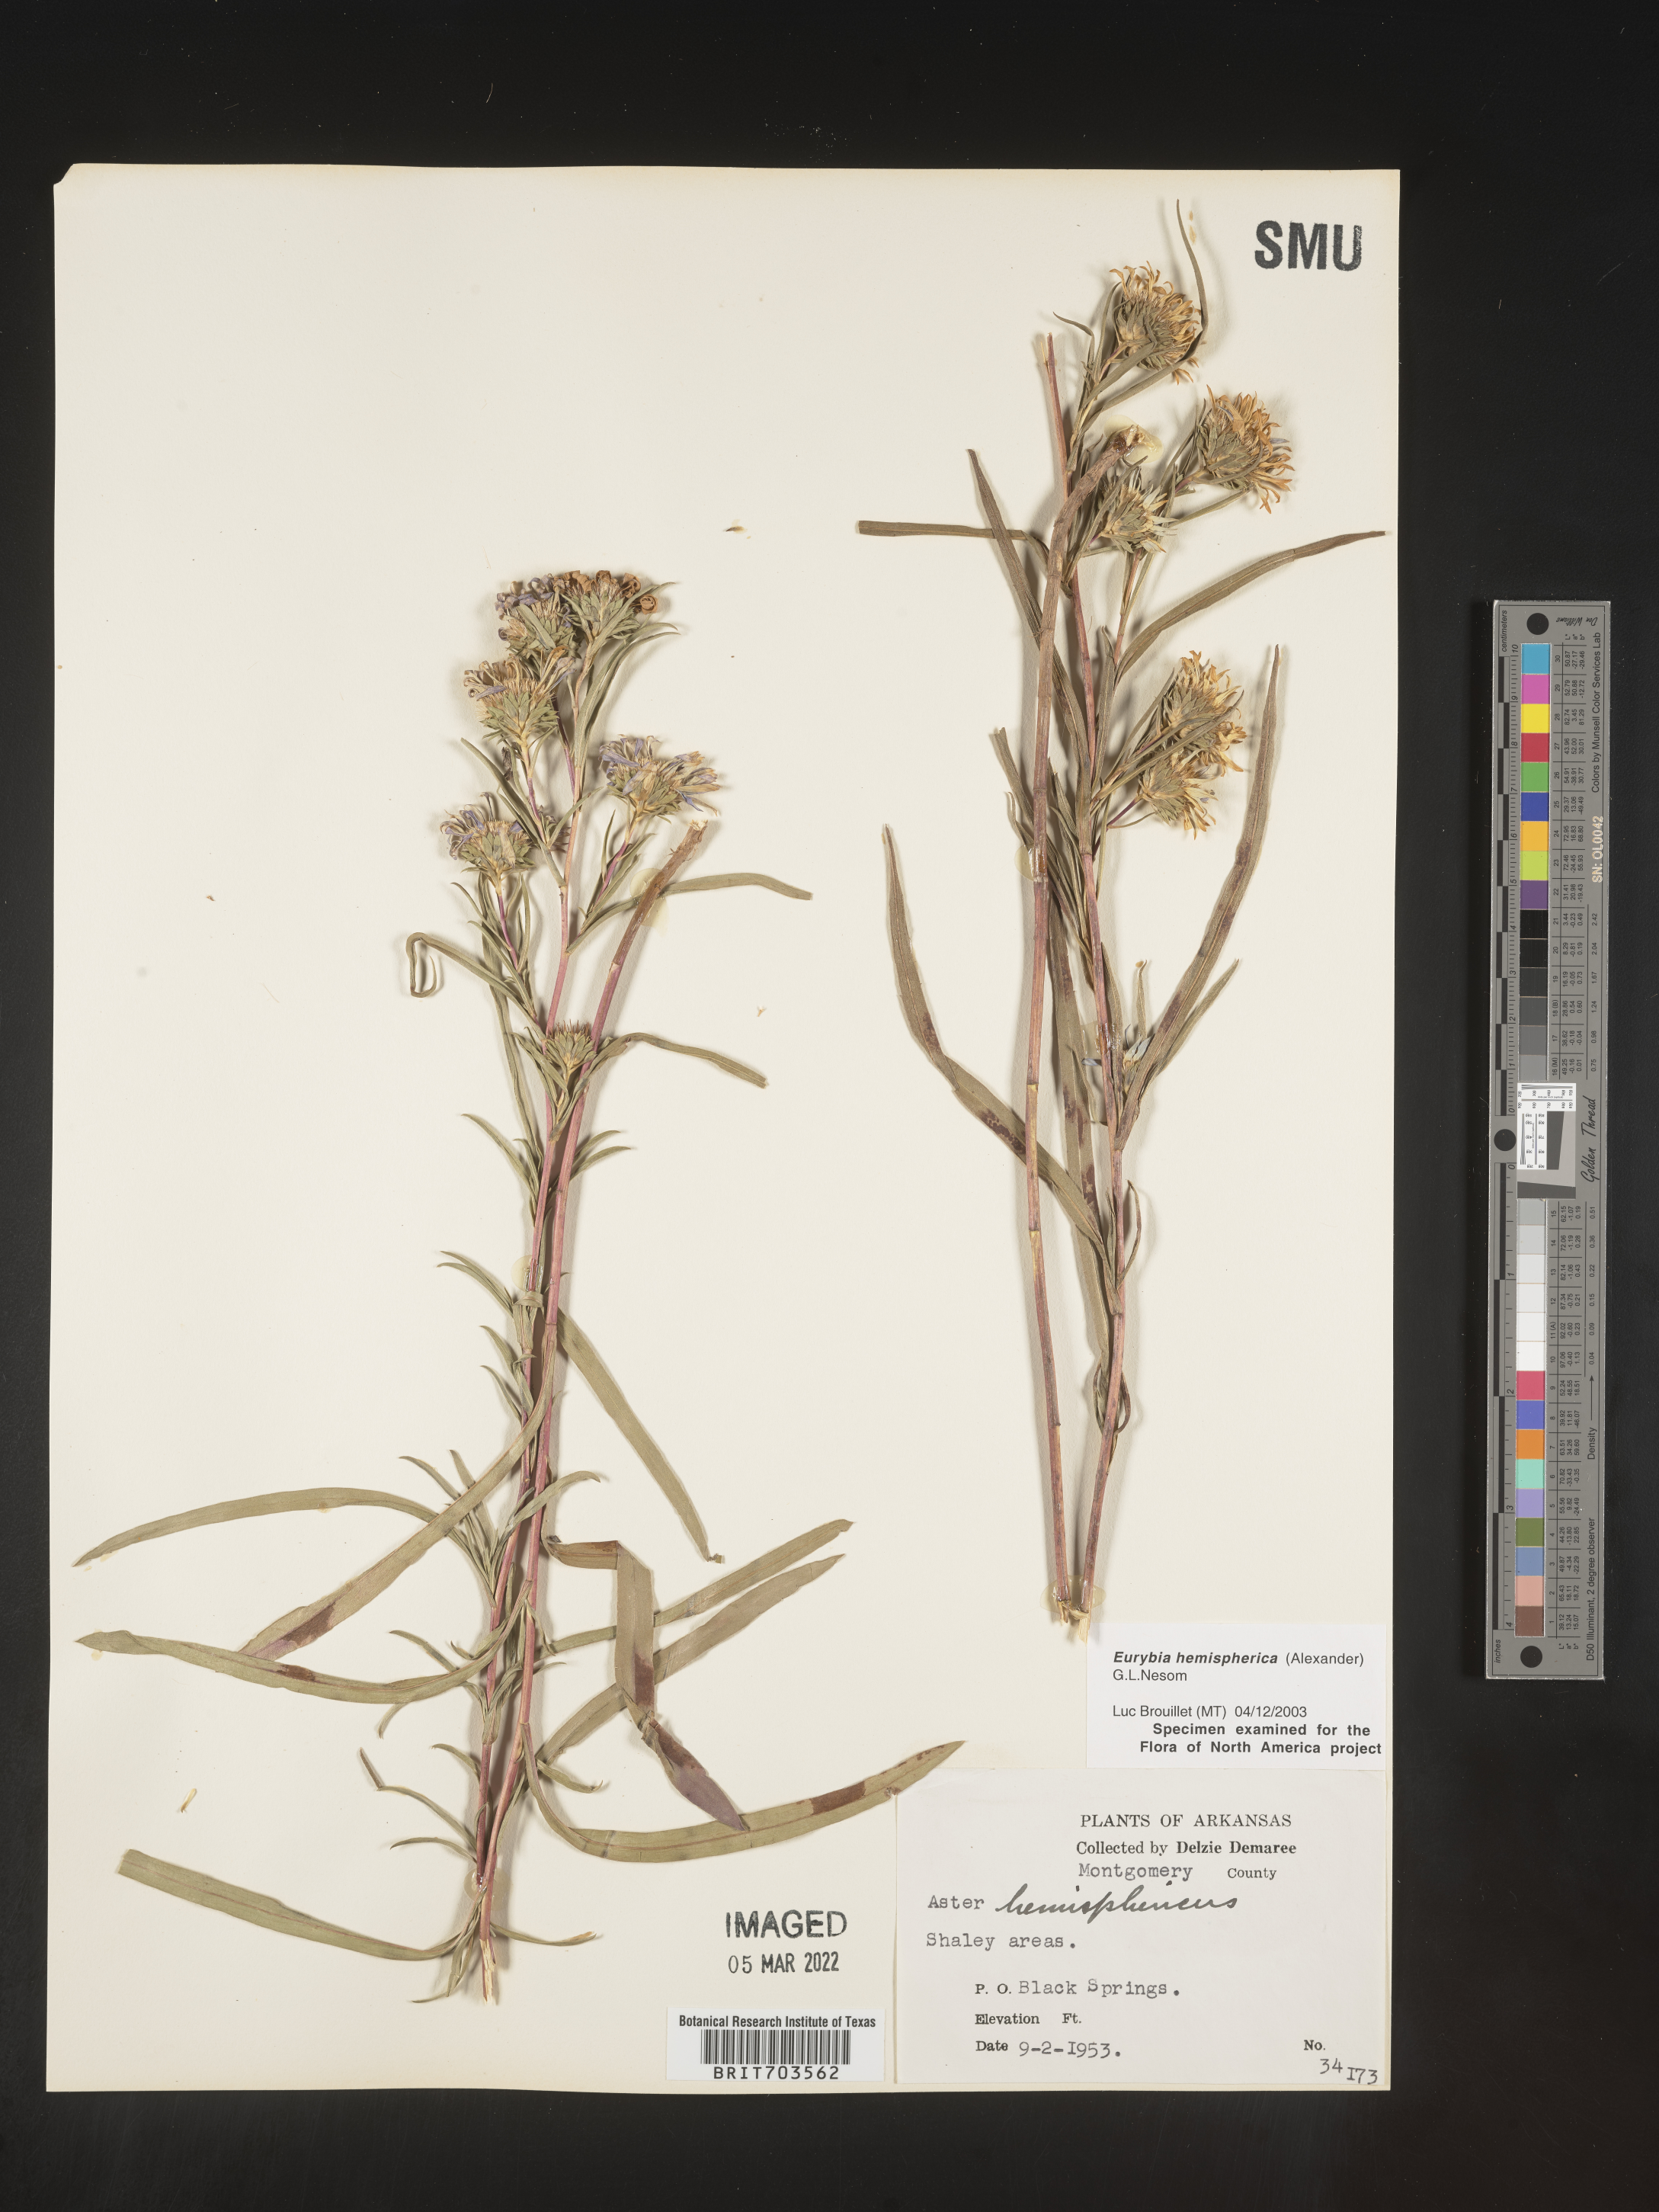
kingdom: Plantae
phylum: Tracheophyta
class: Magnoliopsida
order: Asterales
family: Asteraceae
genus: Eurybia
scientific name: Eurybia hemispherica
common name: Showy aster
